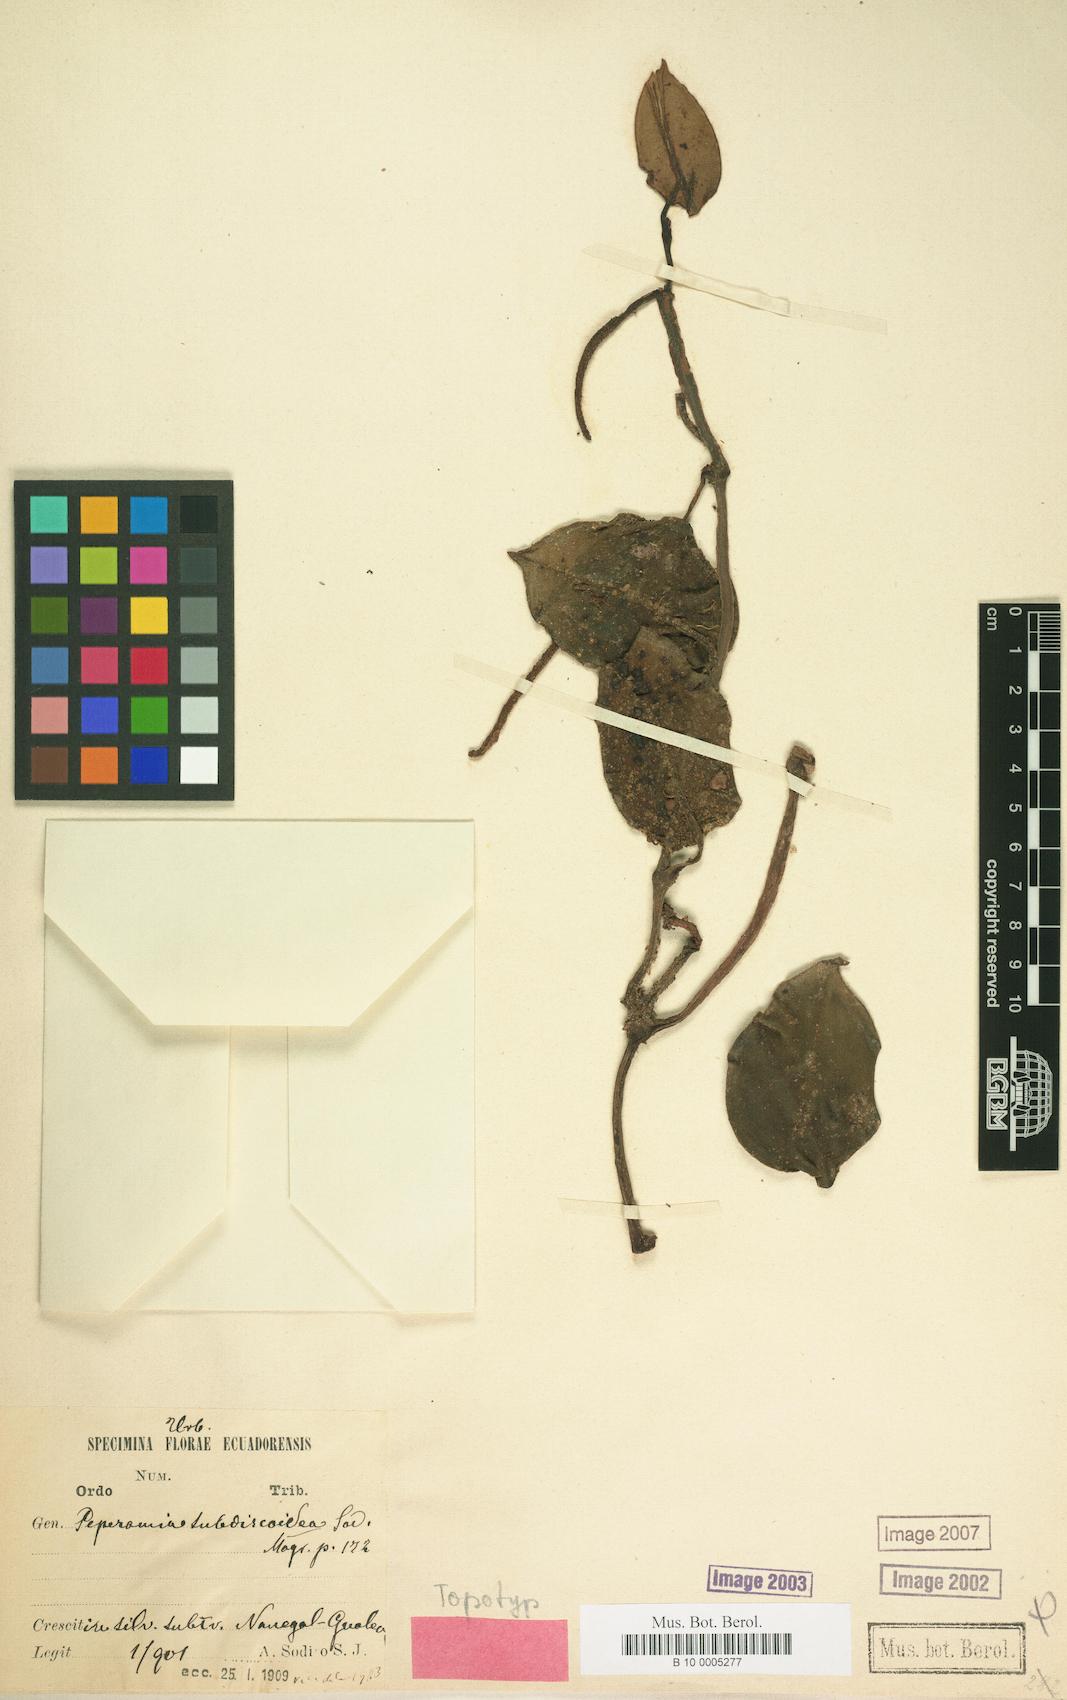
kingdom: Plantae
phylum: Tracheophyta
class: Magnoliopsida
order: Piperales
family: Piperaceae
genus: Peperomia
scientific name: Peperomia stelechophila
